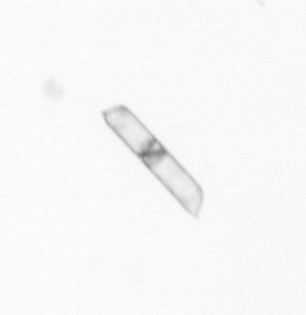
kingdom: Chromista
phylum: Ochrophyta
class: Bacillariophyceae
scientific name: Bacillariophyceae
